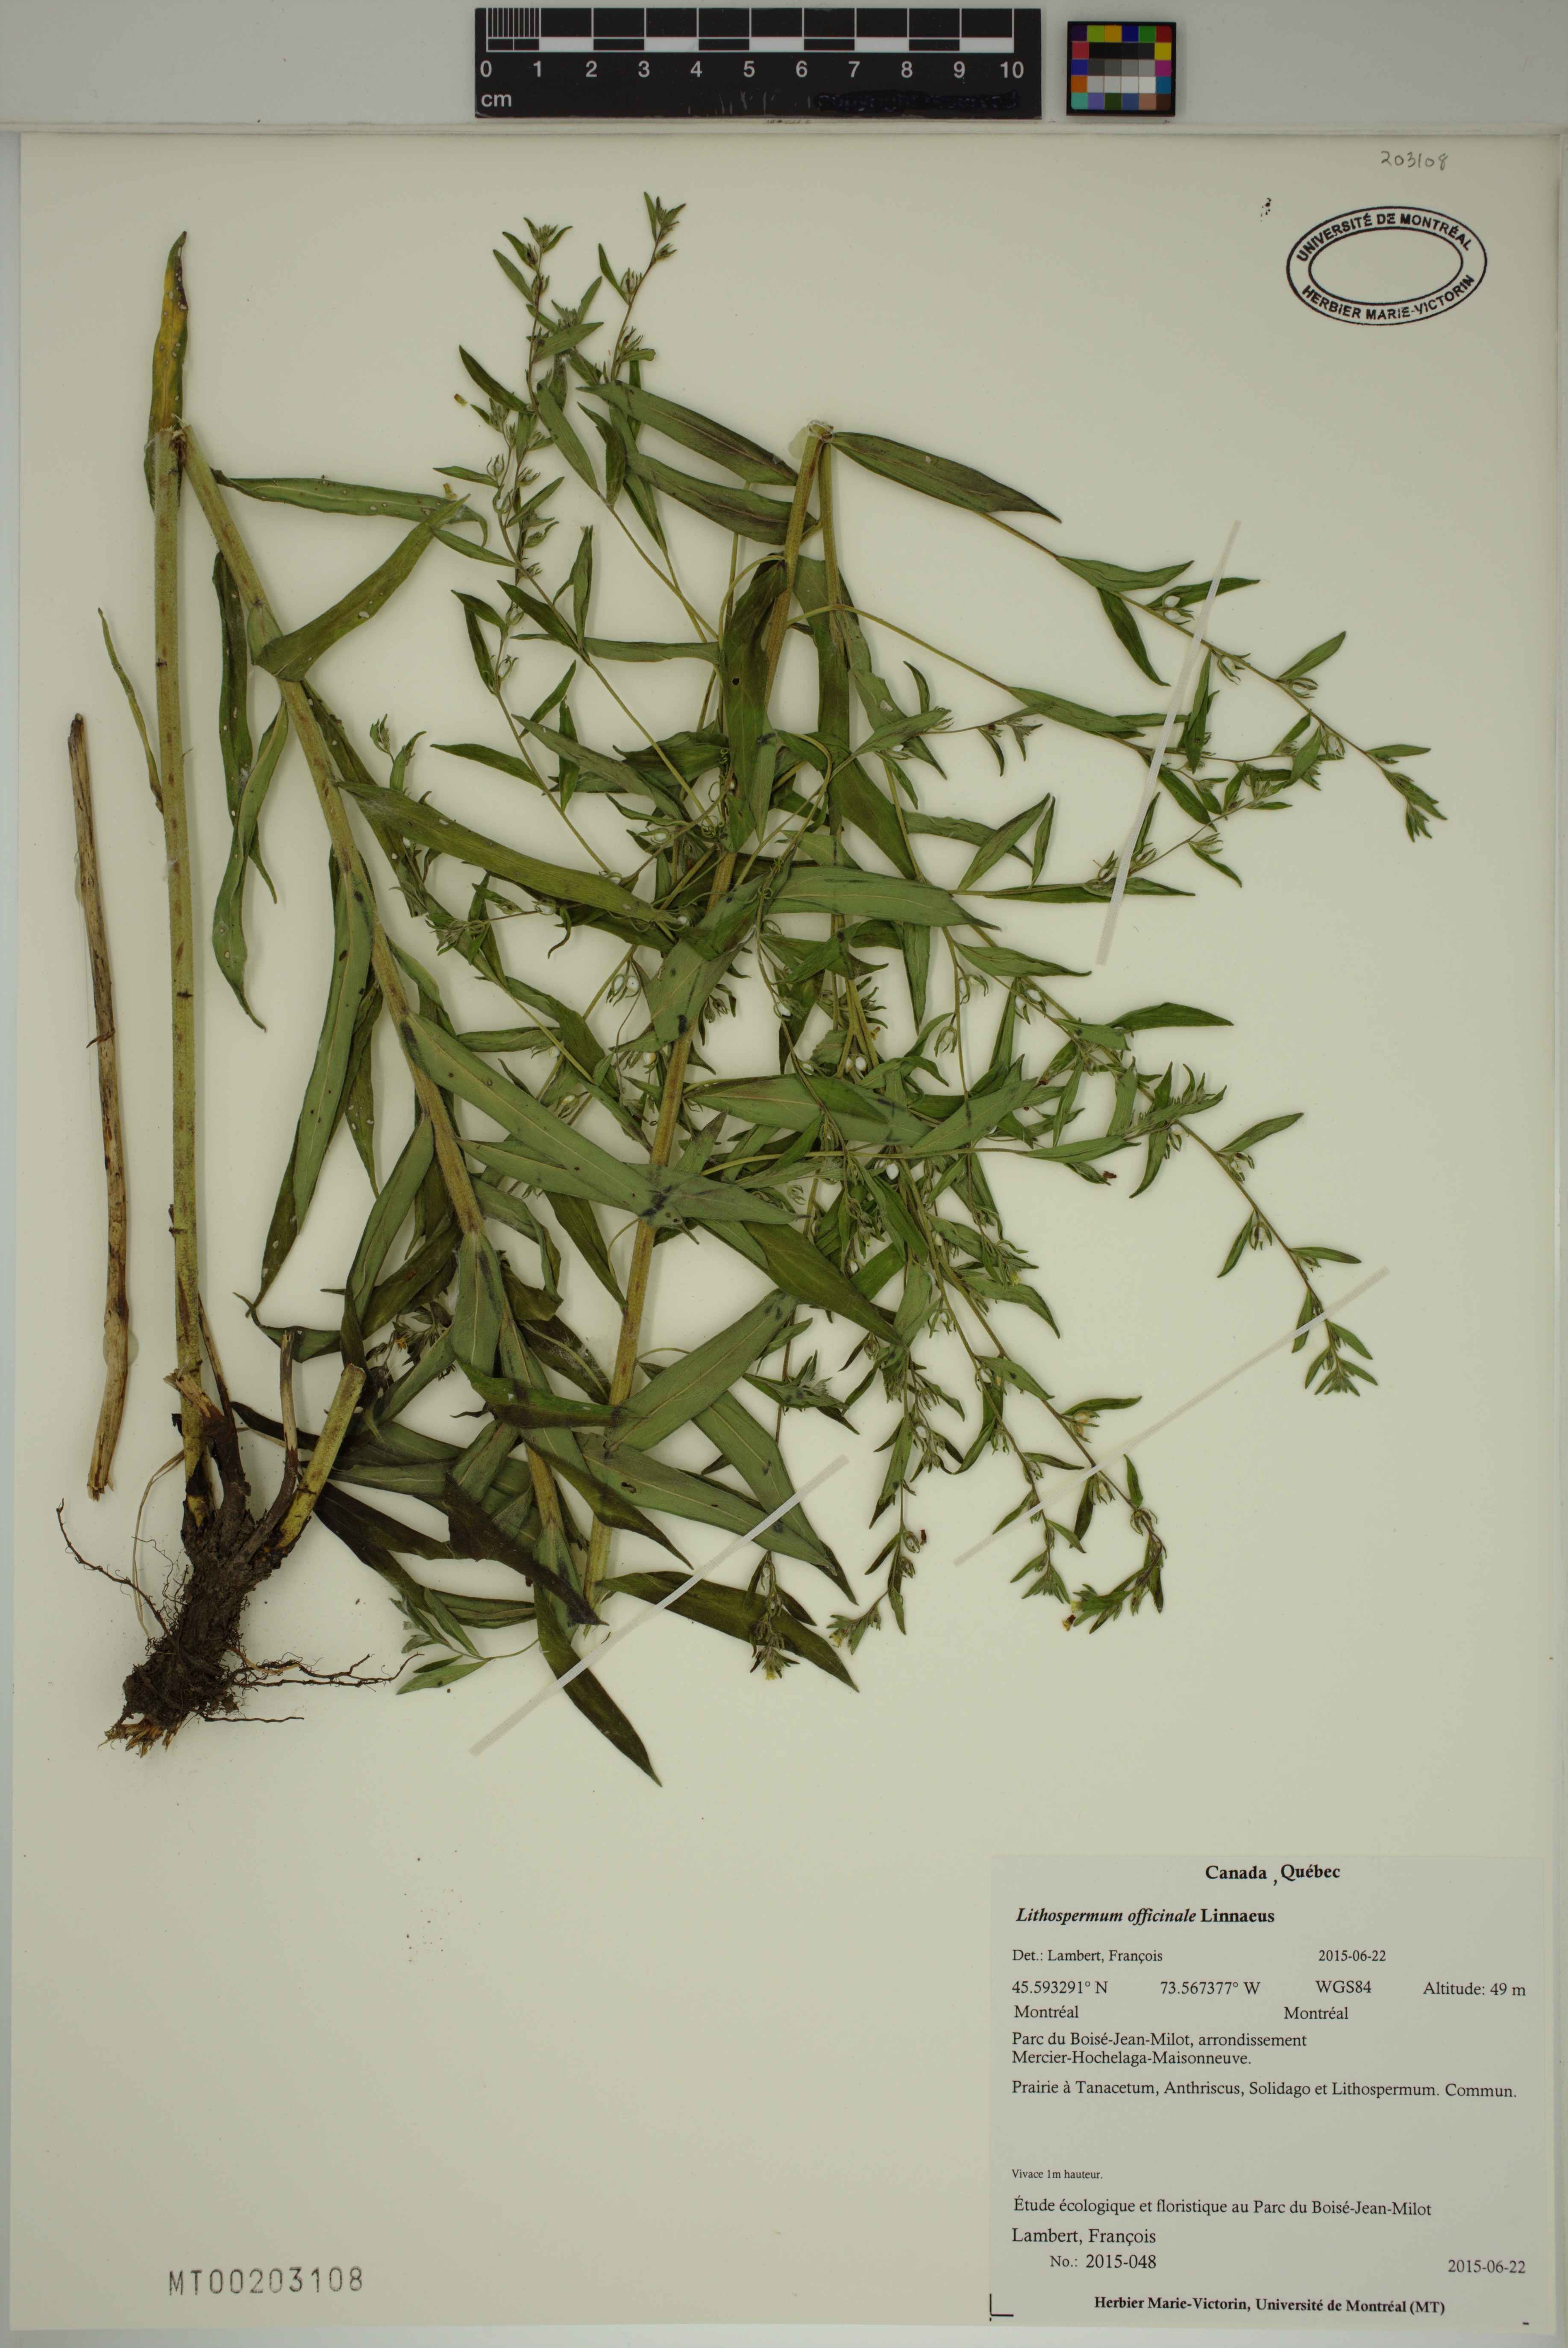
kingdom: Plantae
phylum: Tracheophyta
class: Magnoliopsida
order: Boraginales
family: Boraginaceae
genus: Lithospermum
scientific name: Lithospermum officinale
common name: Common gromwell
